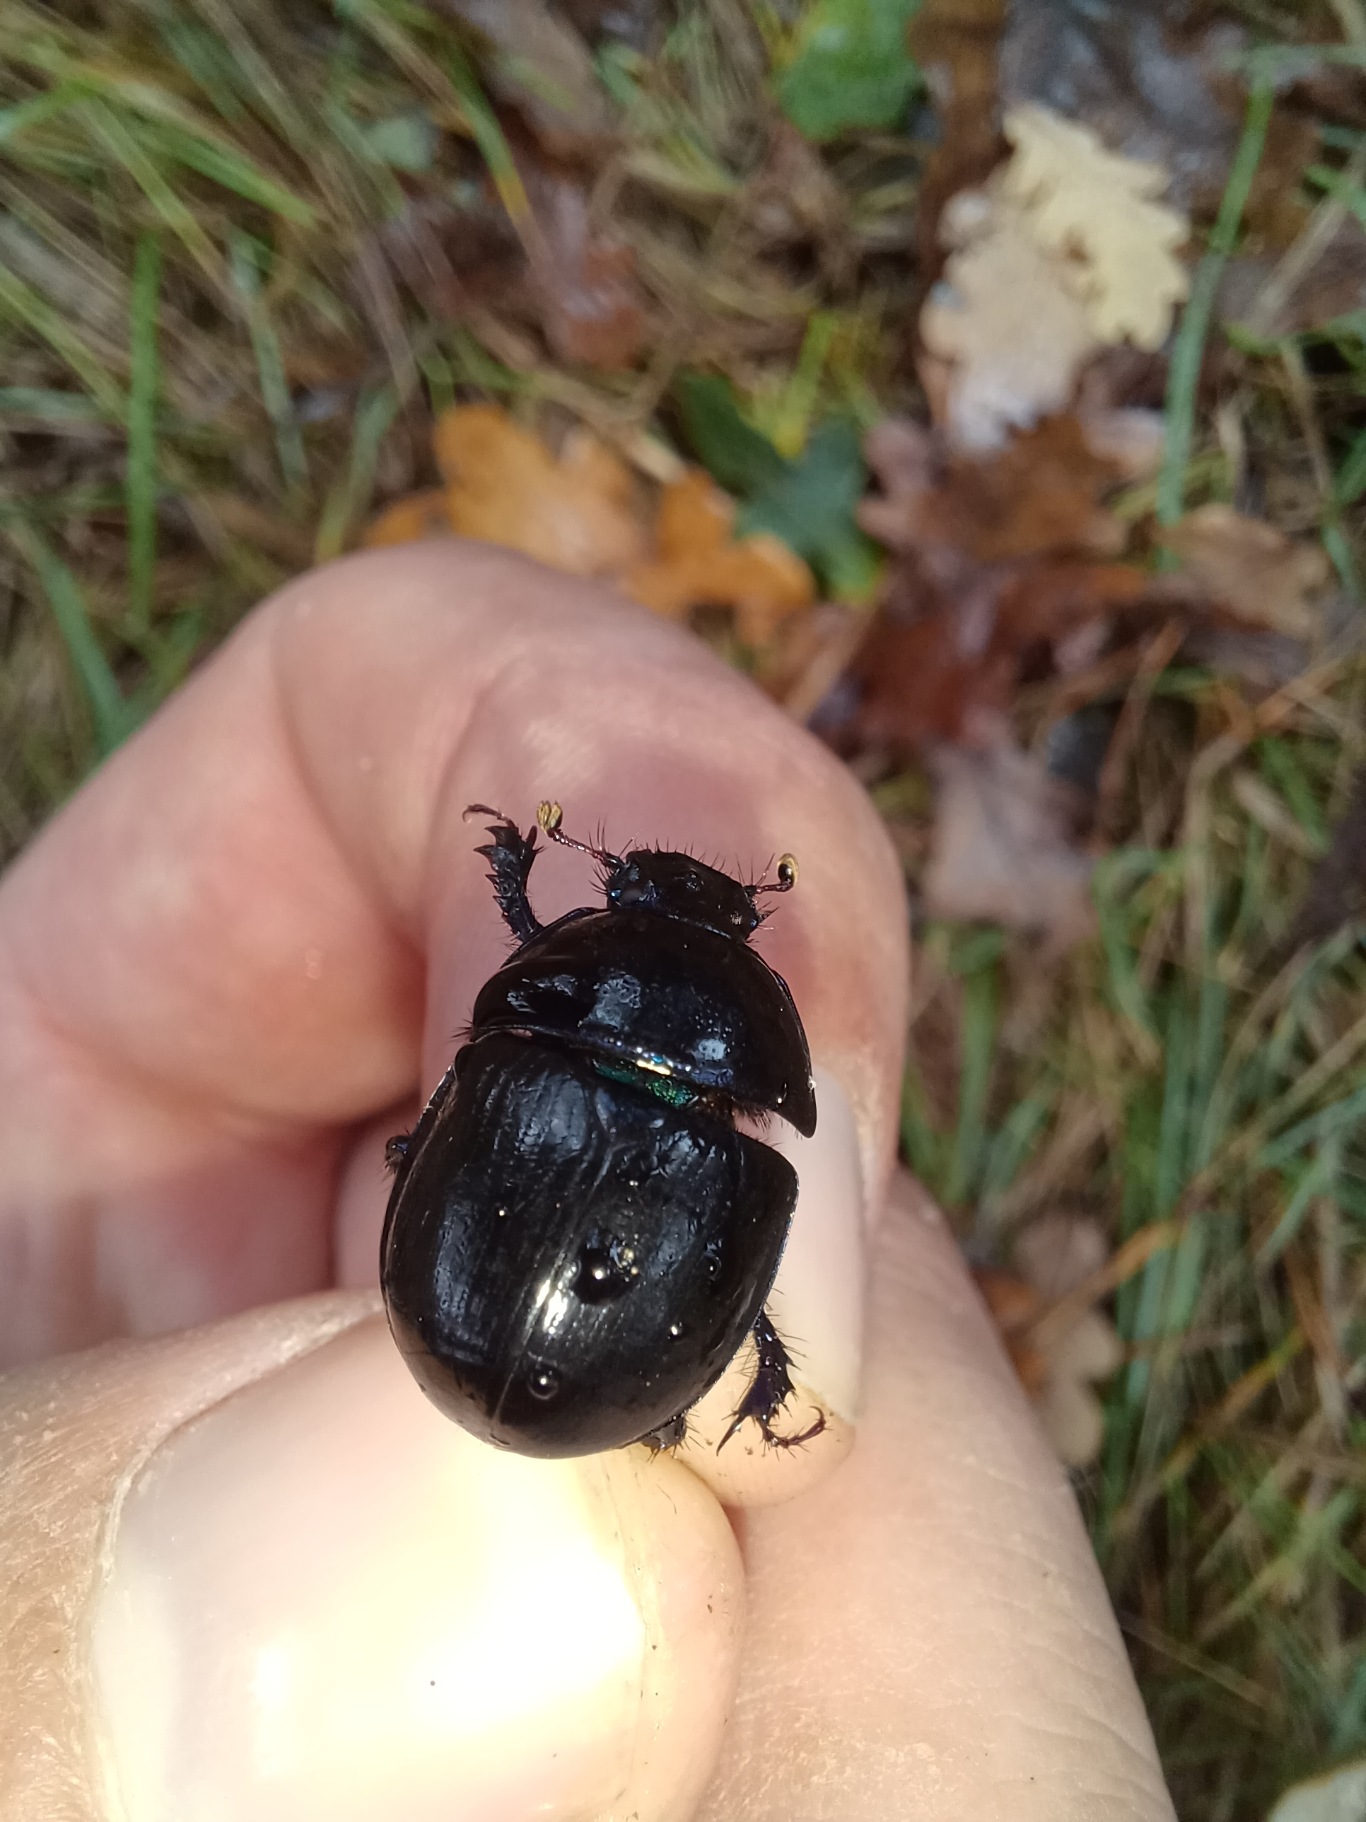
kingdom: Animalia
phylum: Arthropoda
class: Insecta
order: Coleoptera
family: Geotrupidae
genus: Anoplotrupes
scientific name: Anoplotrupes stercorosus
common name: Skovskarnbasse
